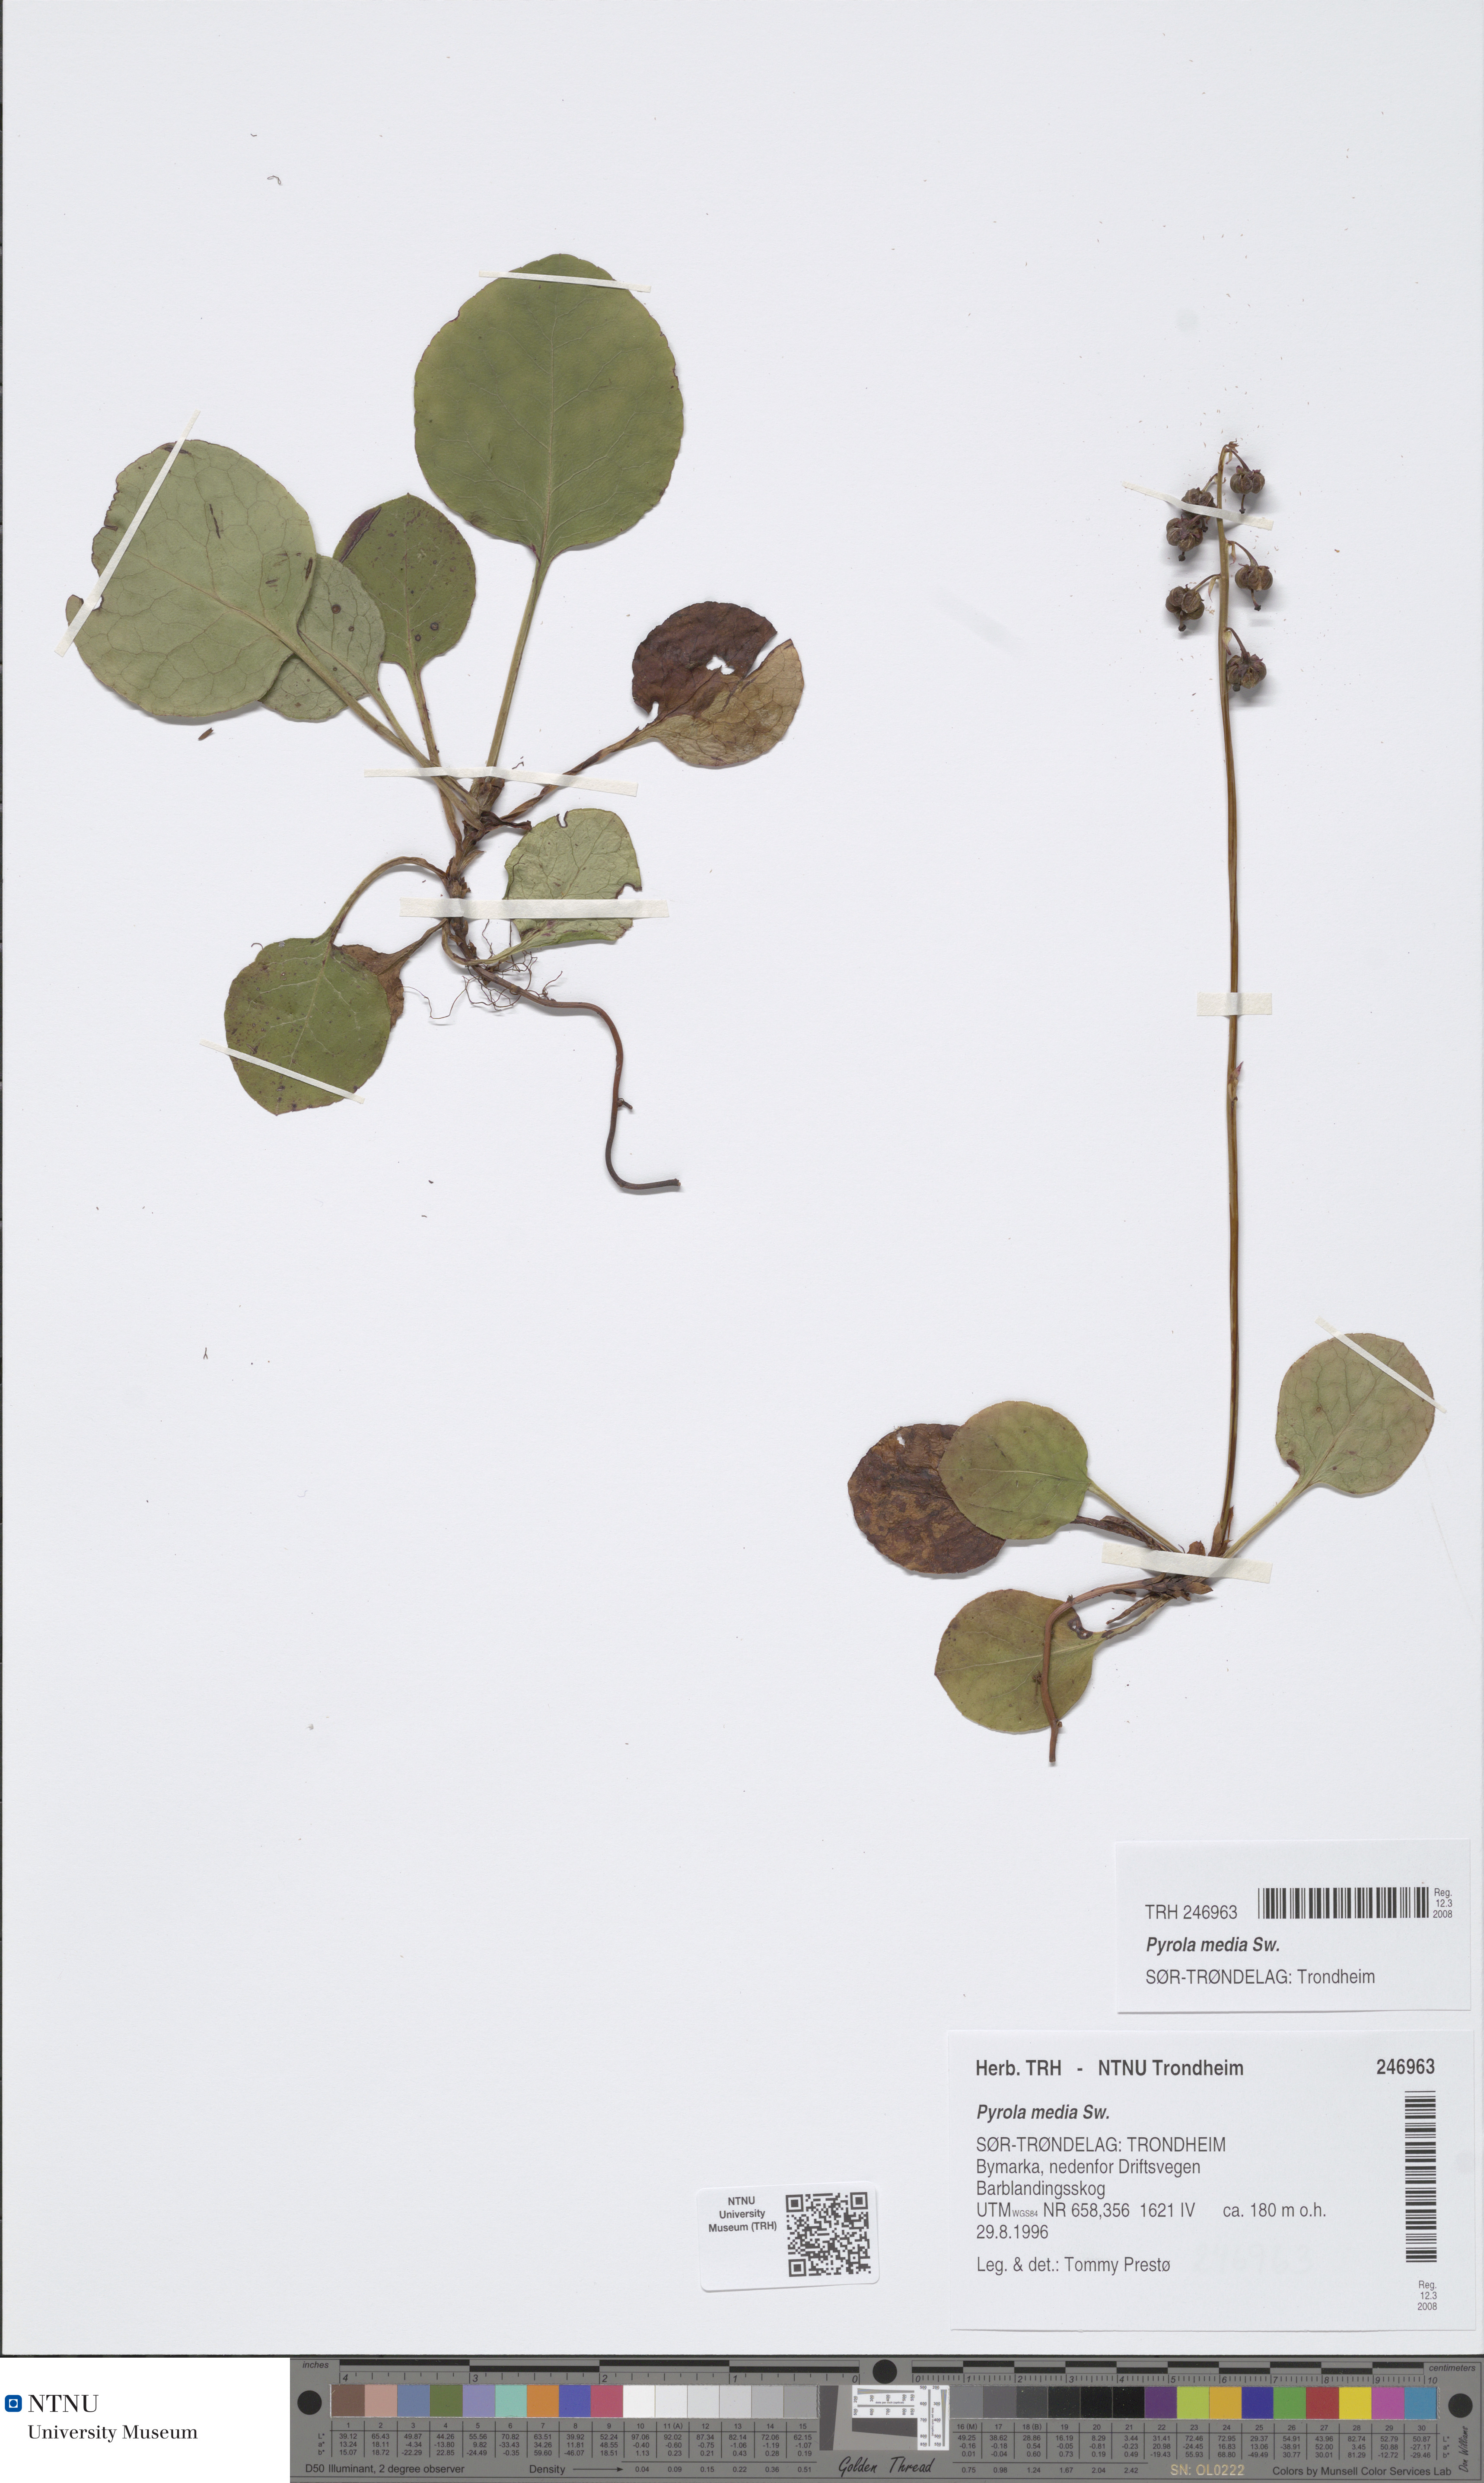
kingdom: Plantae
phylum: Tracheophyta
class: Magnoliopsida
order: Ericales
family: Ericaceae
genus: Pyrola
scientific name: Pyrola media
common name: Intermediate wintergreen
